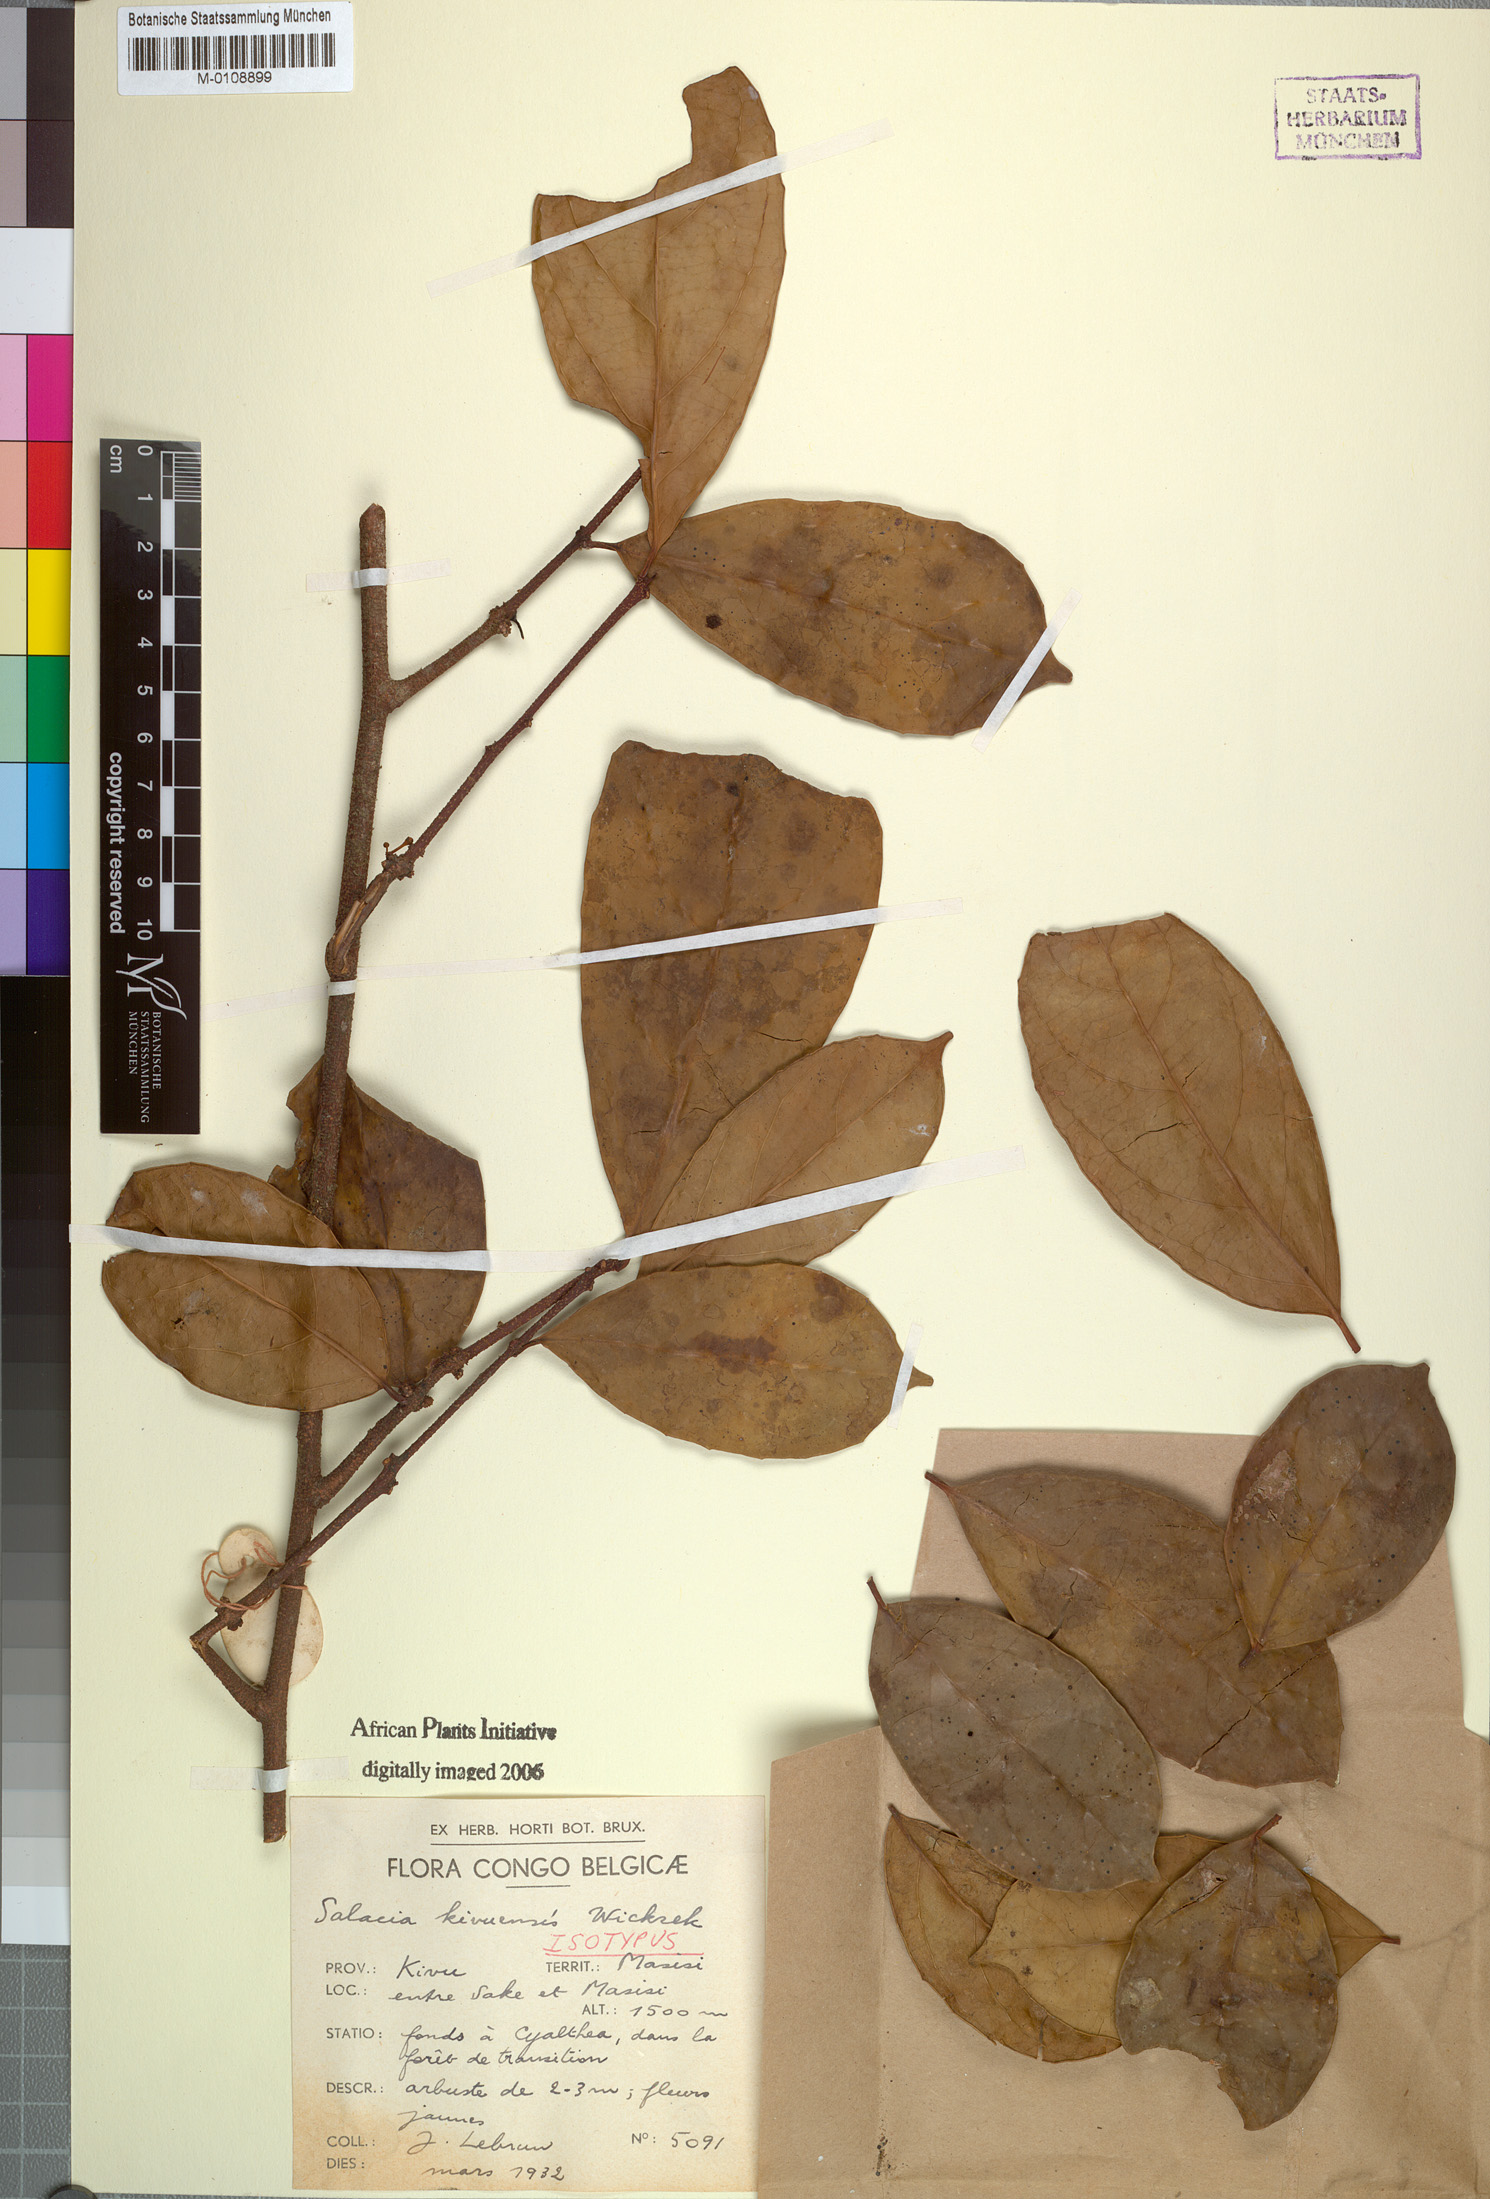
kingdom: Plantae
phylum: Tracheophyta
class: Magnoliopsida
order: Celastrales
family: Celastraceae
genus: Salacia
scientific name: Salacia kivuensis
